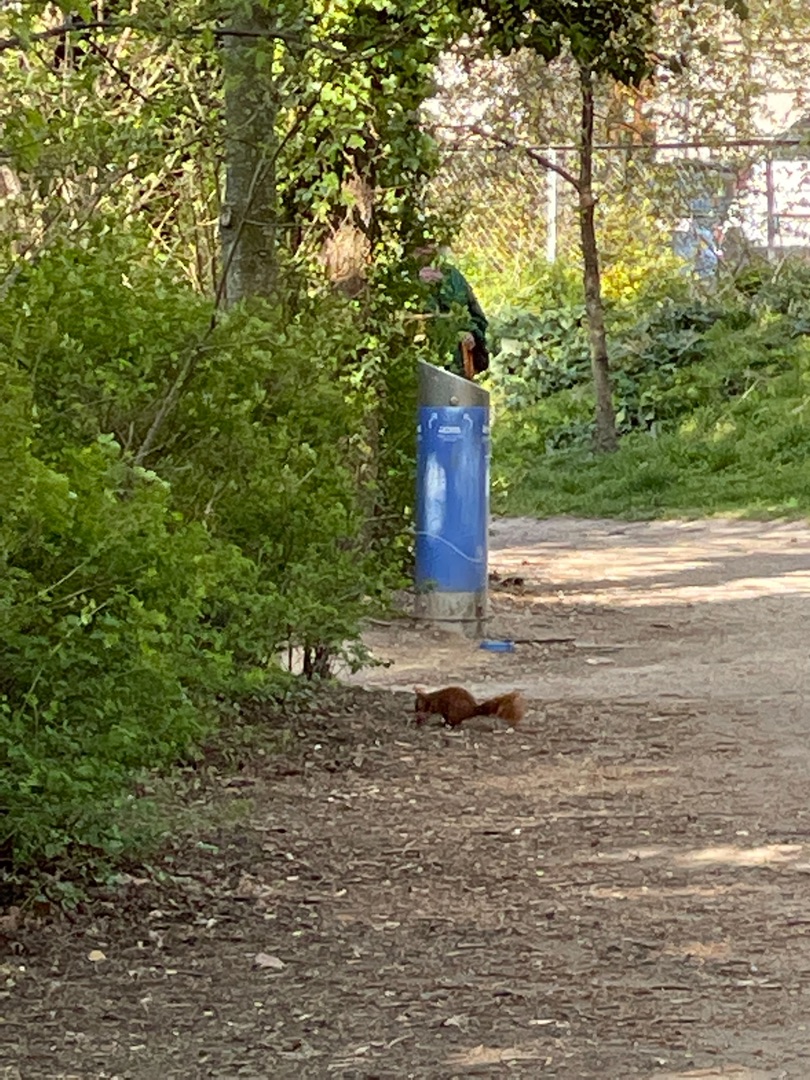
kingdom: Animalia
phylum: Chordata
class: Mammalia
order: Rodentia
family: Sciuridae
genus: Sciurus
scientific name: Sciurus vulgaris
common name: Egern
